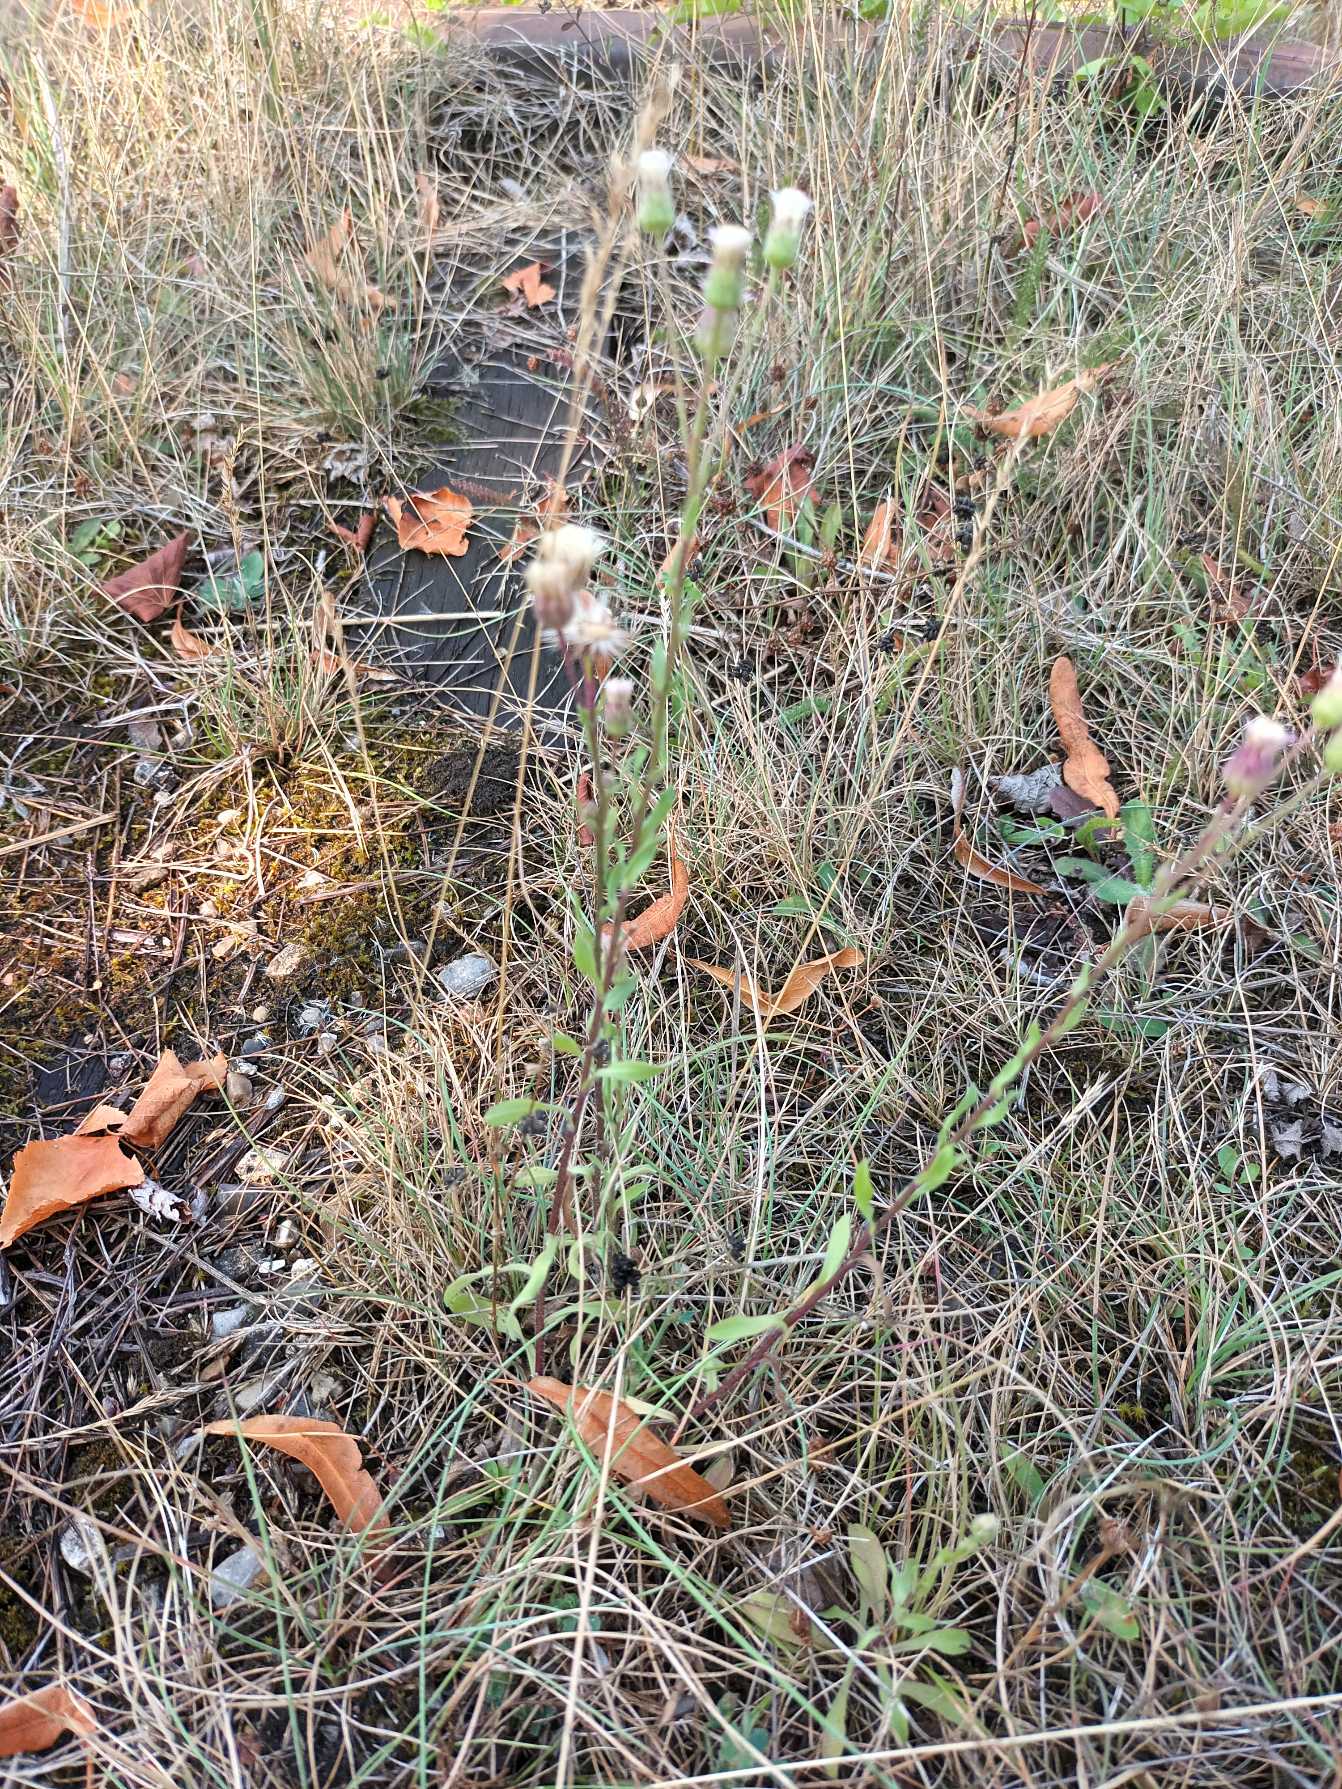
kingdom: Plantae
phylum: Tracheophyta
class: Magnoliopsida
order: Asterales
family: Asteraceae
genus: Erigeron
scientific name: Erigeron muralis
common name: Vreden bakkestjerne
